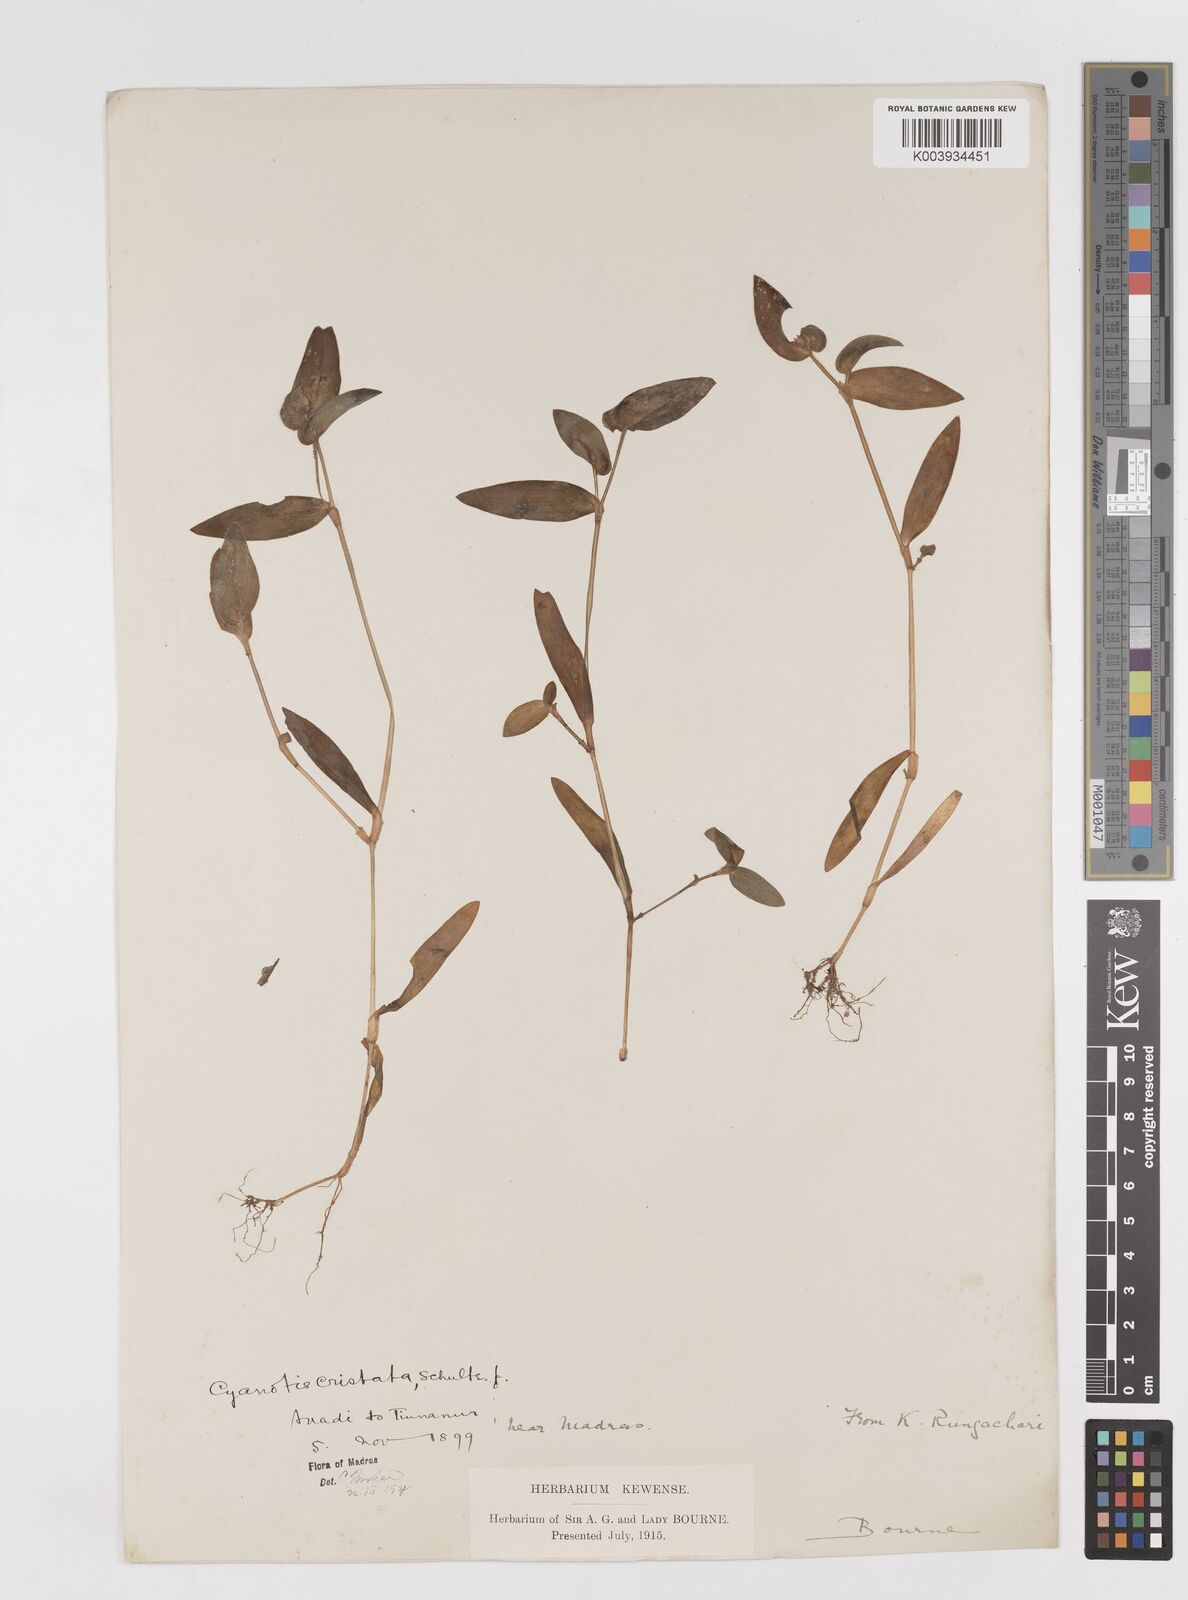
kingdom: Plantae
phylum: Tracheophyta
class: Liliopsida
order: Commelinales
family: Commelinaceae
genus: Cyanotis
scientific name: Cyanotis cristata
